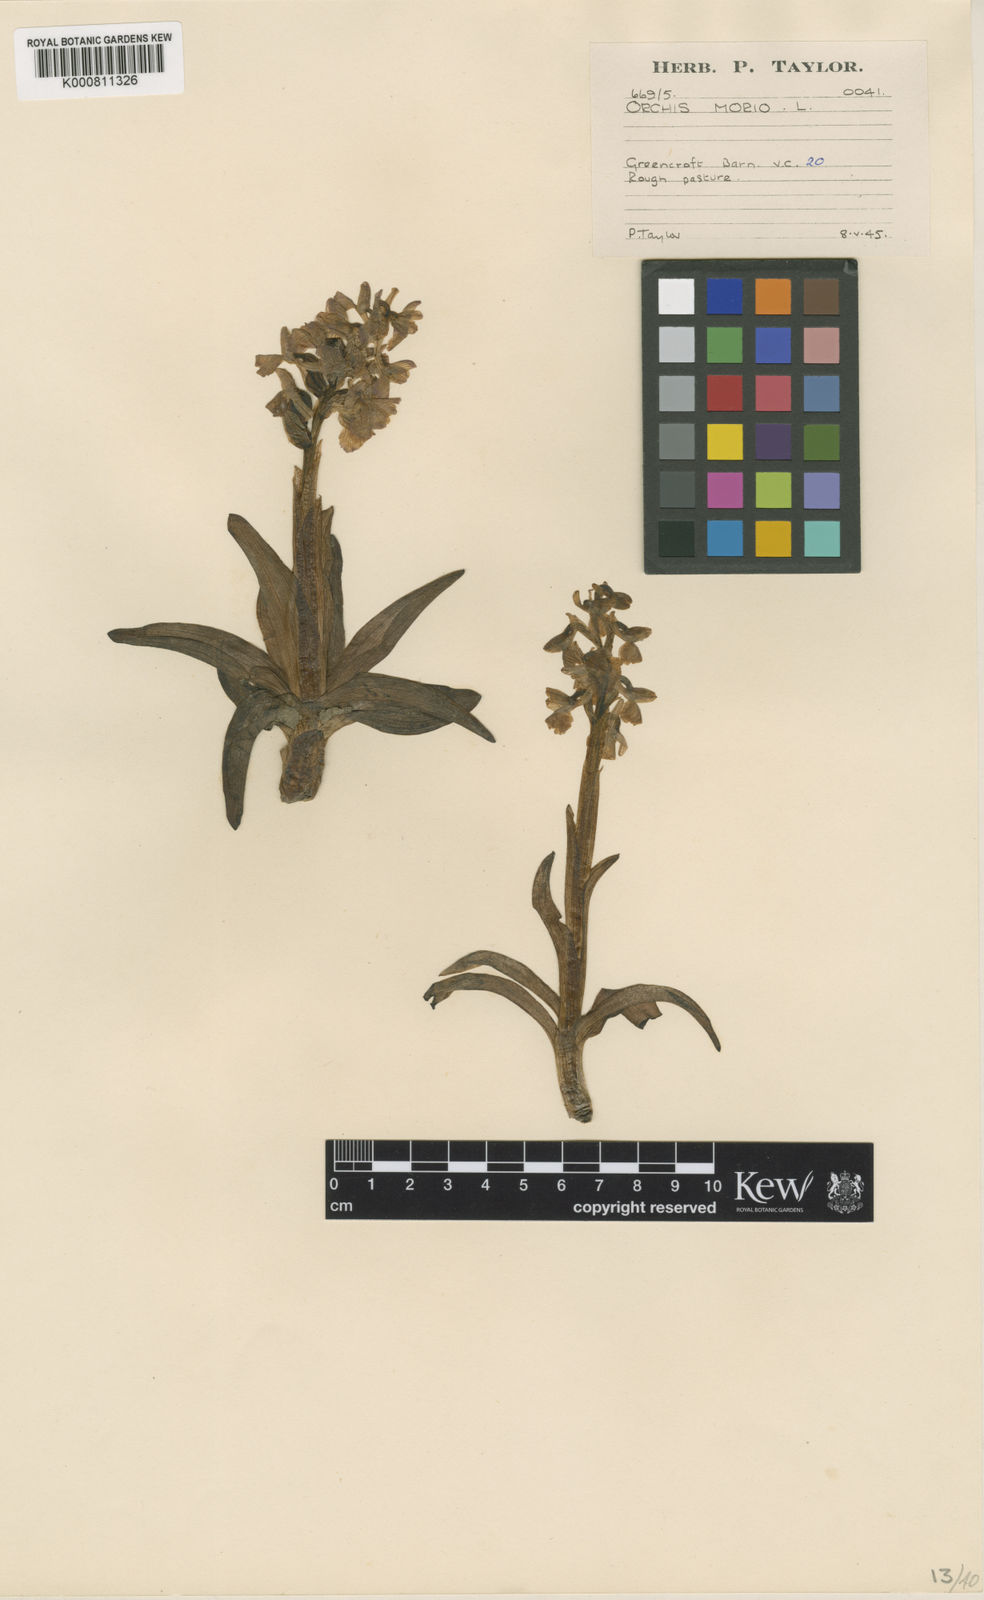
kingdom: Plantae
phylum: Tracheophyta
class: Liliopsida
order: Asparagales
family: Orchidaceae
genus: Anacamptis
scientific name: Anacamptis morio
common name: Green-winged orchid
